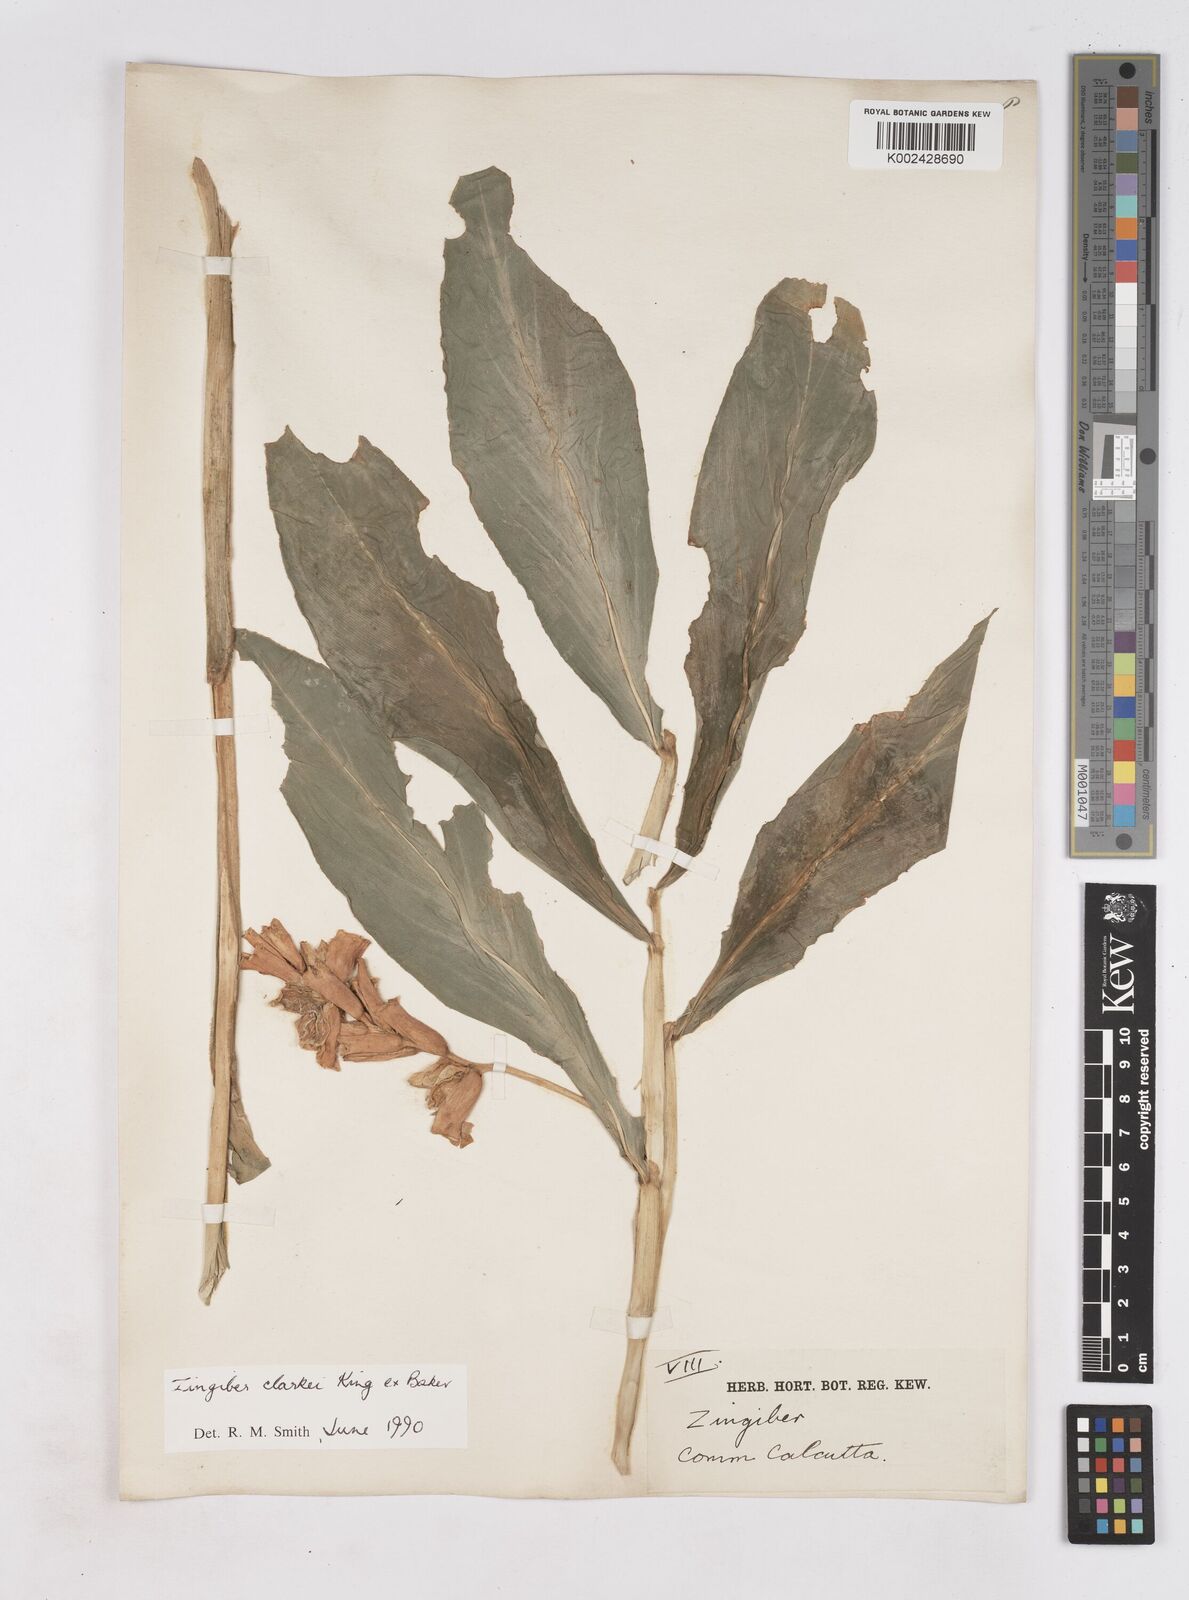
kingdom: Plantae
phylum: Tracheophyta
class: Liliopsida
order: Zingiberales
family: Zingiberaceae
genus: Zingiber
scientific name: Zingiber clarkei
